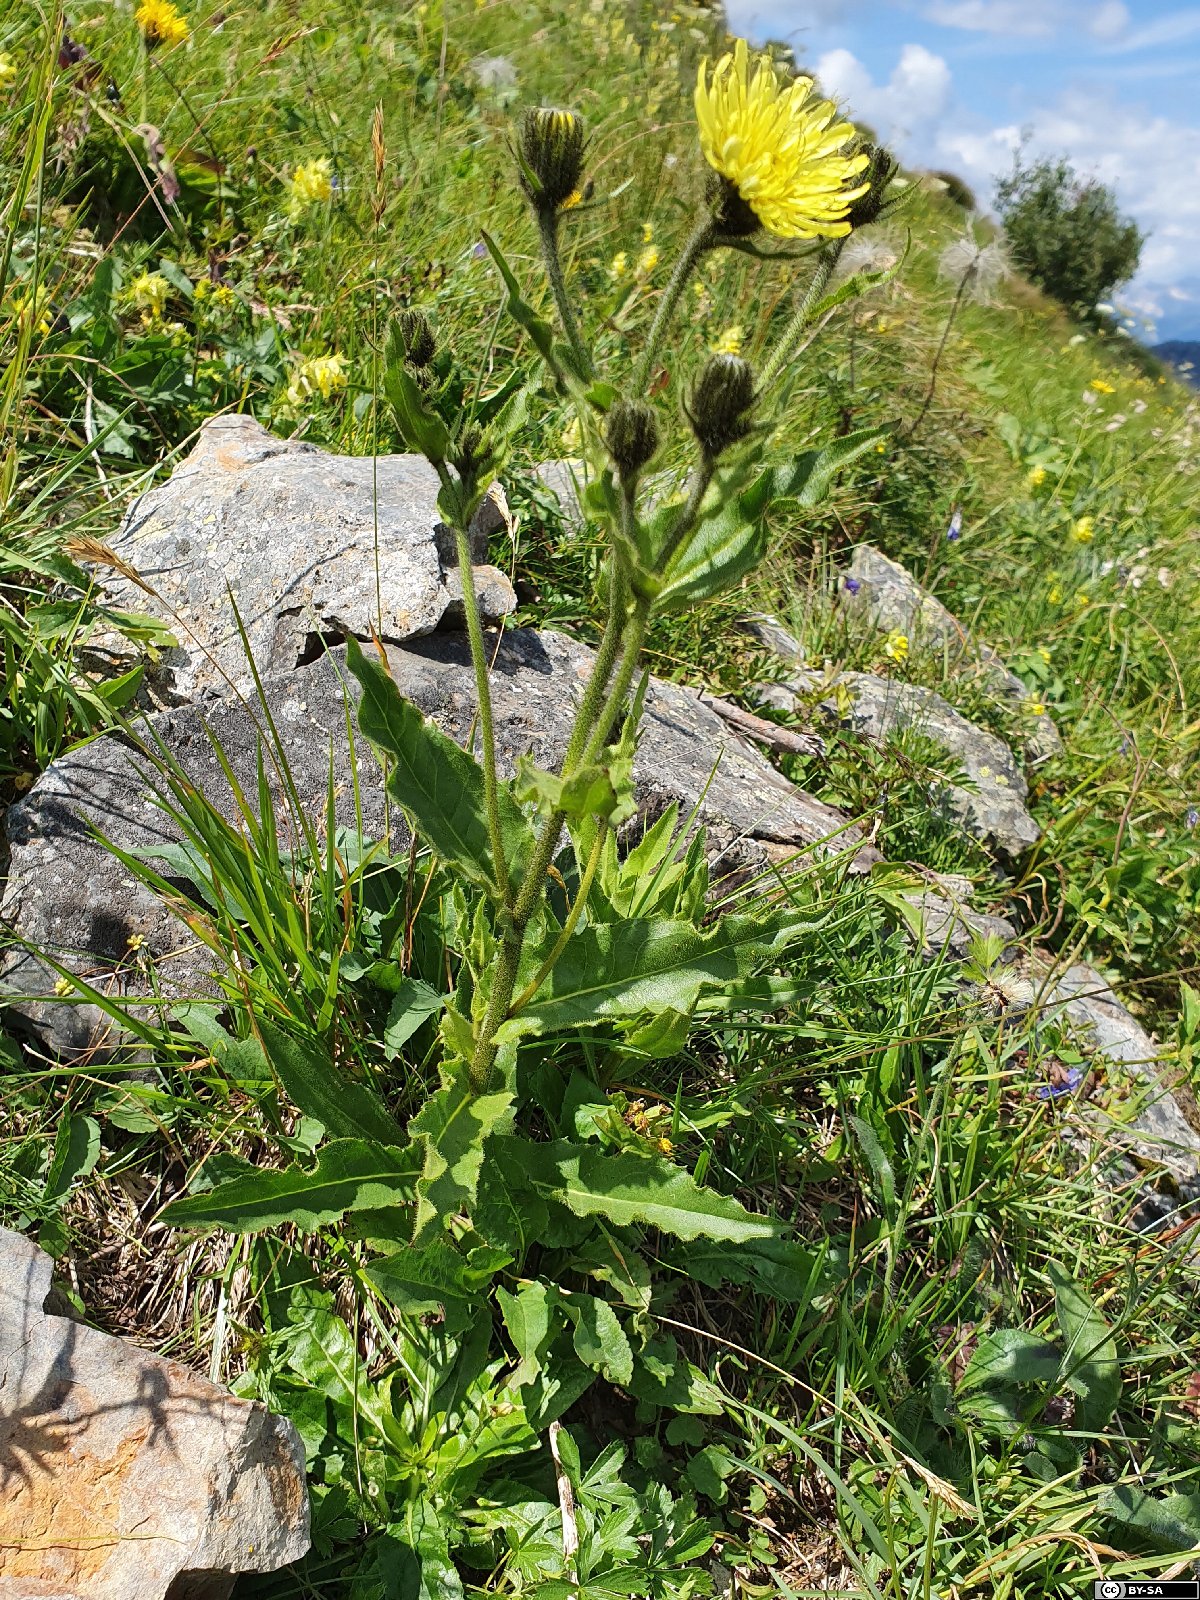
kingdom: Plantae
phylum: Tracheophyta
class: Magnoliopsida
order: Asterales
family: Asteraceae
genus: Schlagintweitia
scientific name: Schlagintweitia huteri
